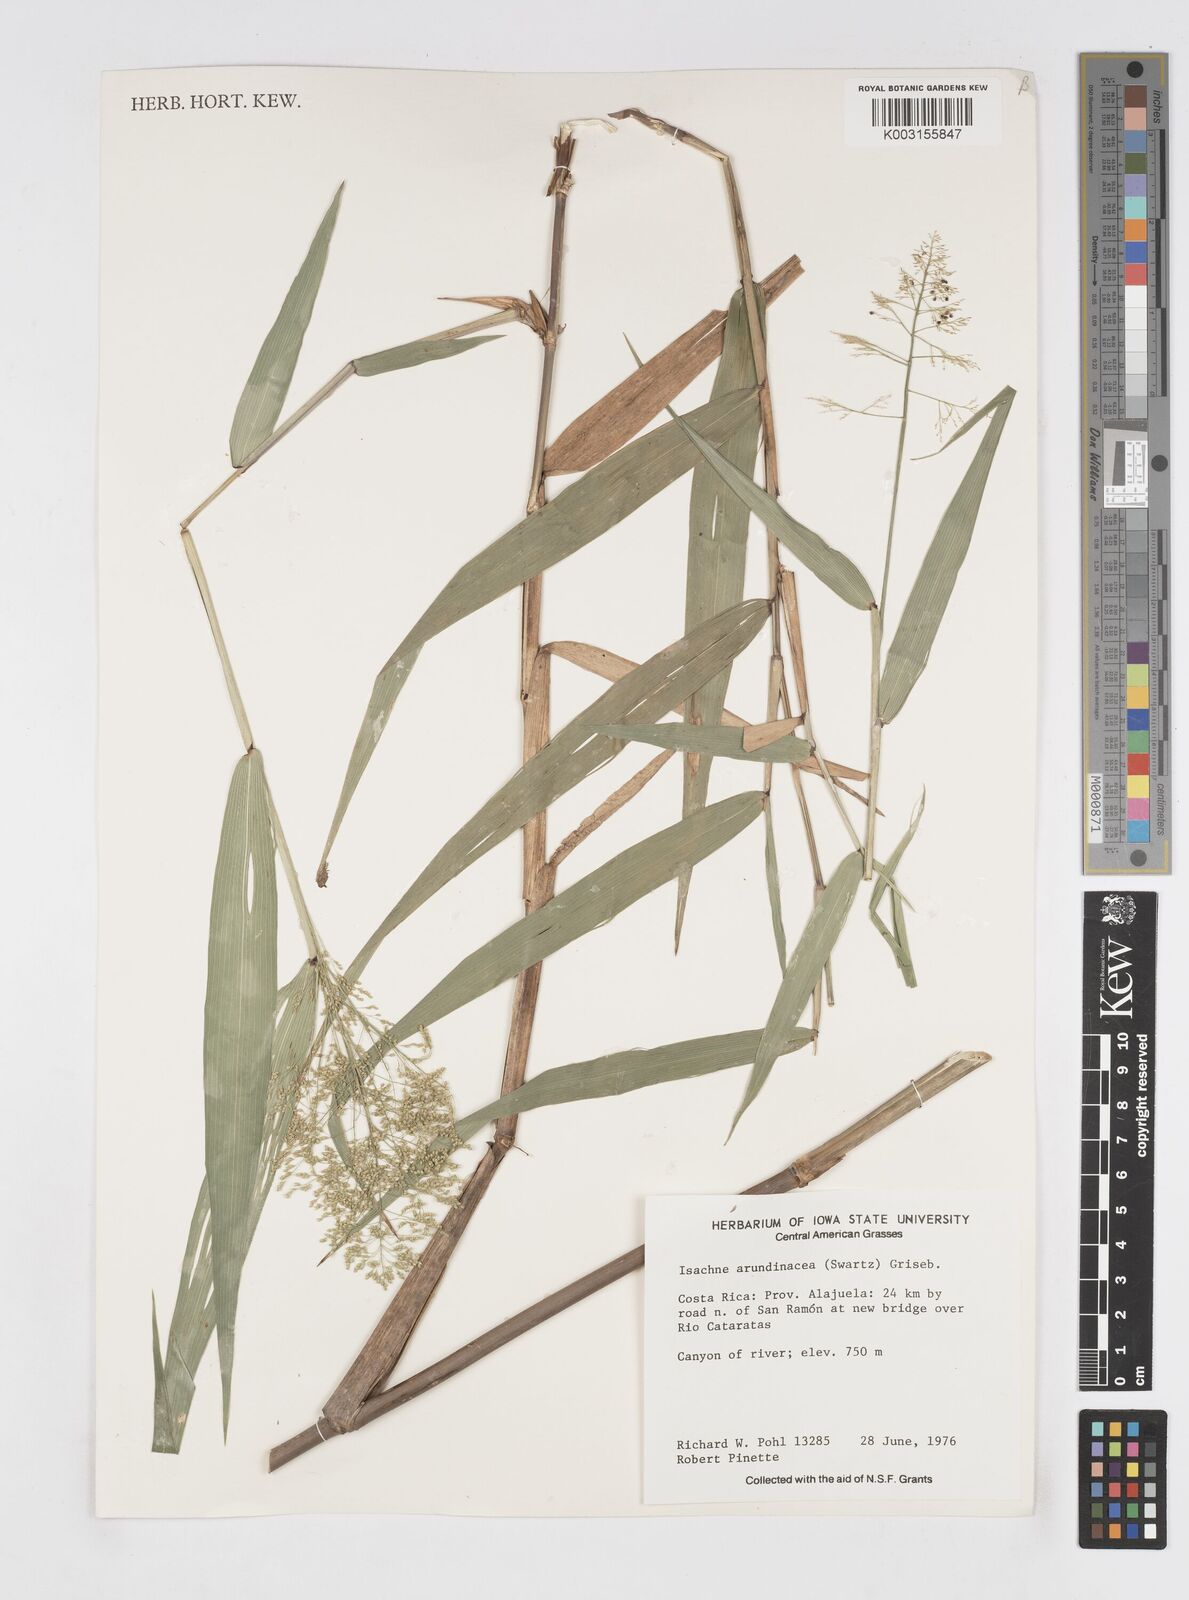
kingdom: Plantae
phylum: Tracheophyta
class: Liliopsida
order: Poales
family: Poaceae
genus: Isachne
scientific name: Isachne arundinacea
